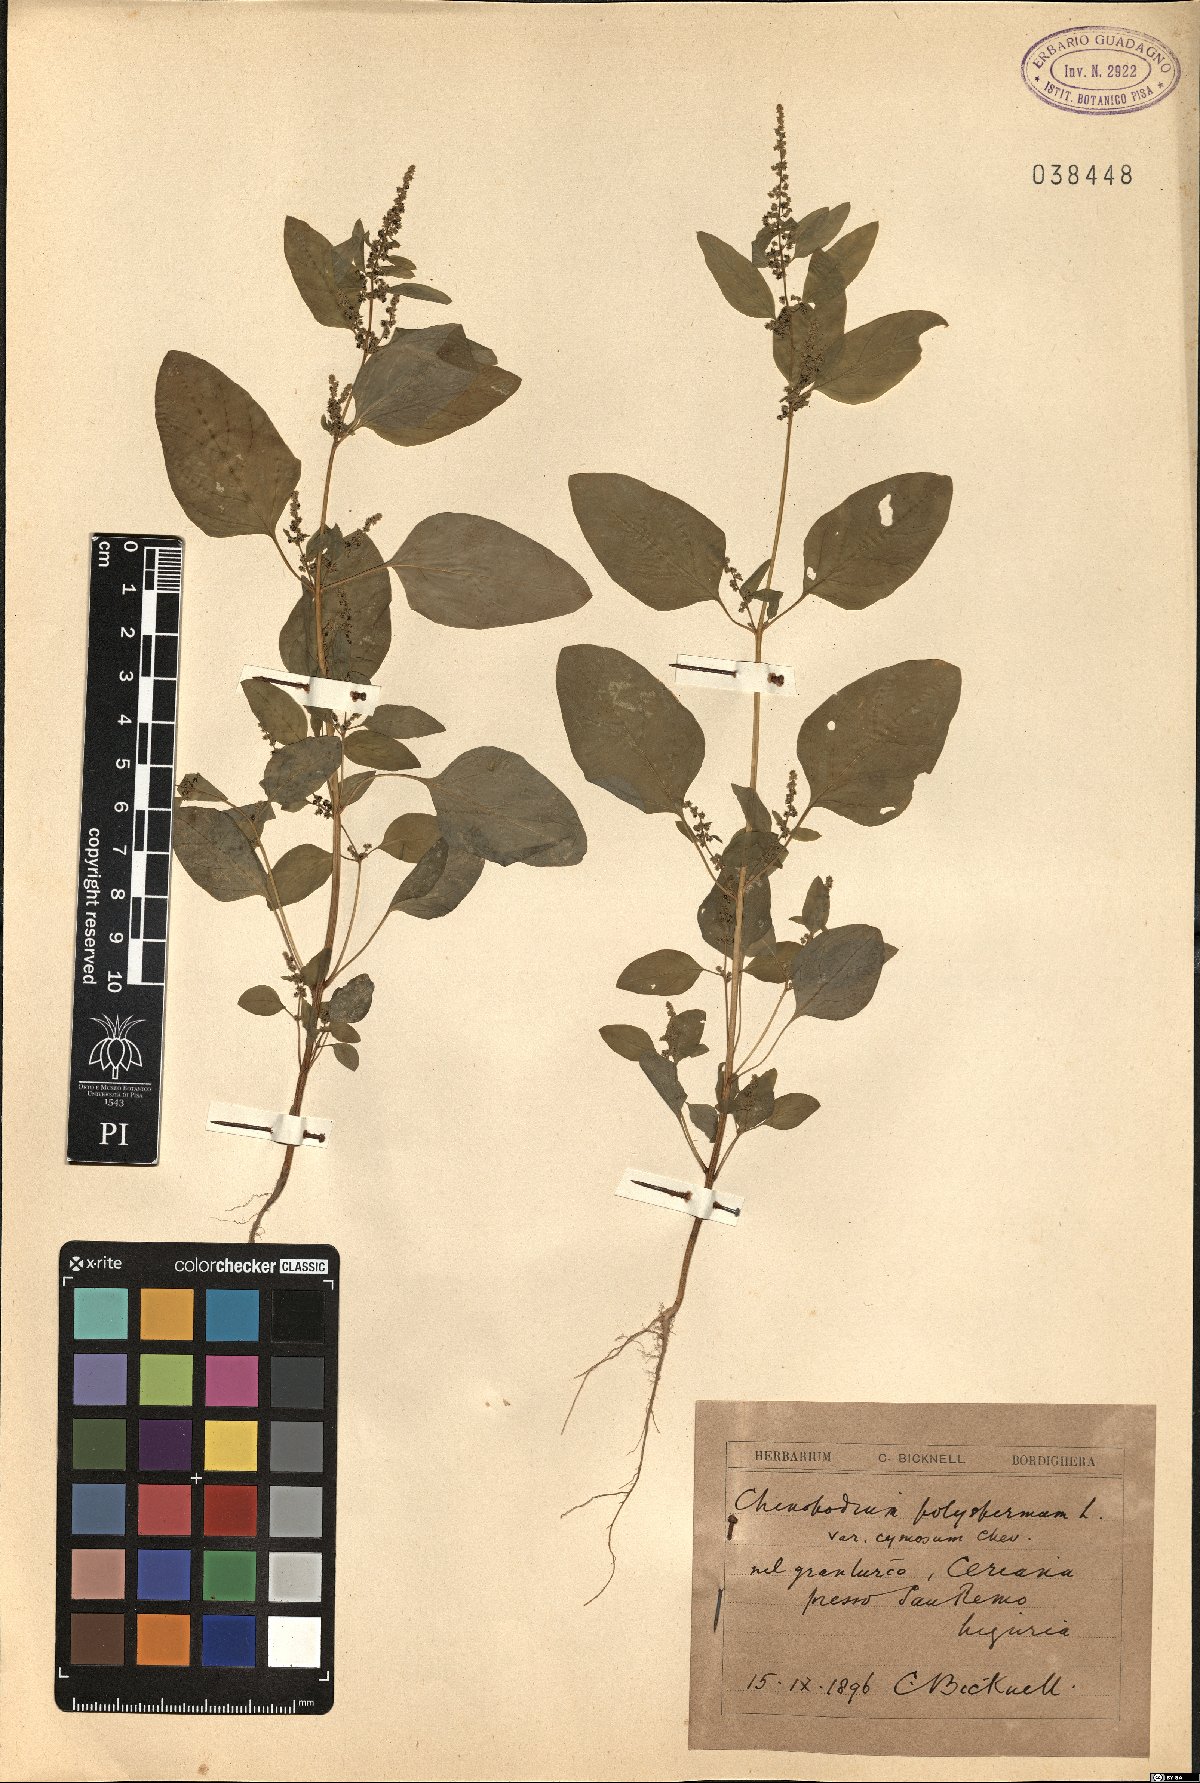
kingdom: Plantae
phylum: Tracheophyta
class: Magnoliopsida
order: Caryophyllales
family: Amaranthaceae
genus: Lipandra
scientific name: Lipandra polysperma
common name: Many-seed goosefoot
